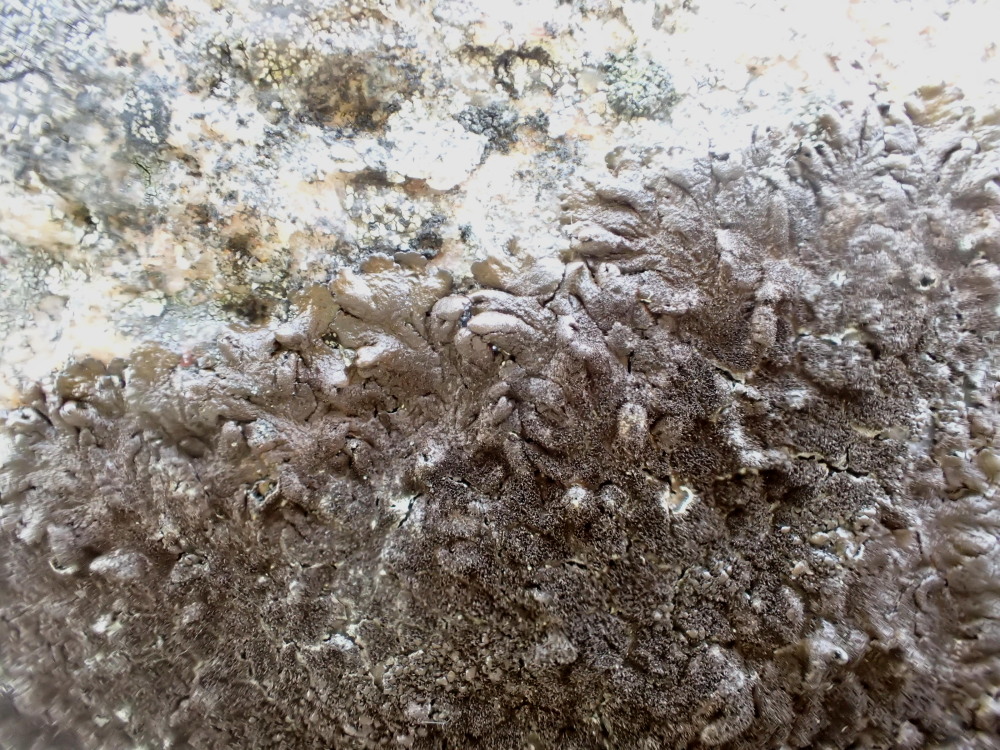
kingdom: Fungi
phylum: Ascomycota
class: Lecanoromycetes
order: Lecanorales
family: Parmeliaceae
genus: Melanelixia
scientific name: Melanelixia fuliginosa
